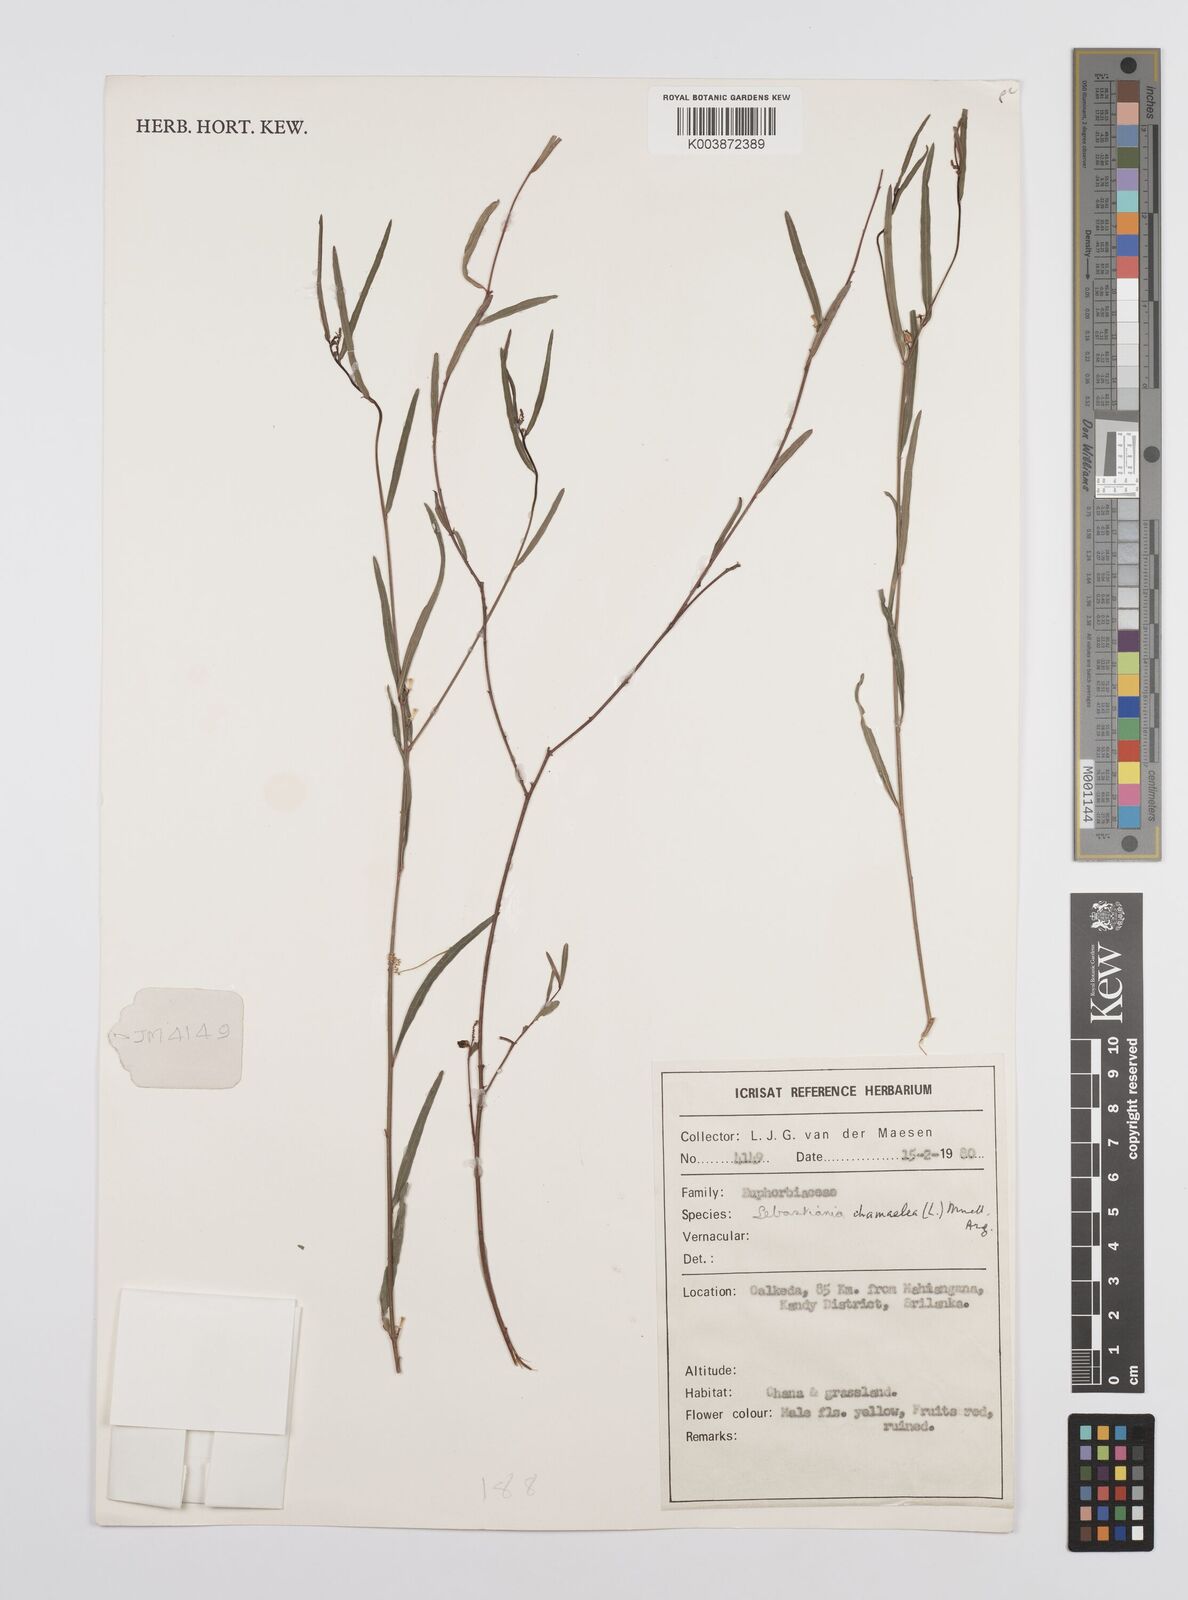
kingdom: Plantae
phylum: Tracheophyta
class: Magnoliopsida
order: Malpighiales
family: Euphorbiaceae
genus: Microstachys
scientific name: Microstachys chamaelea
